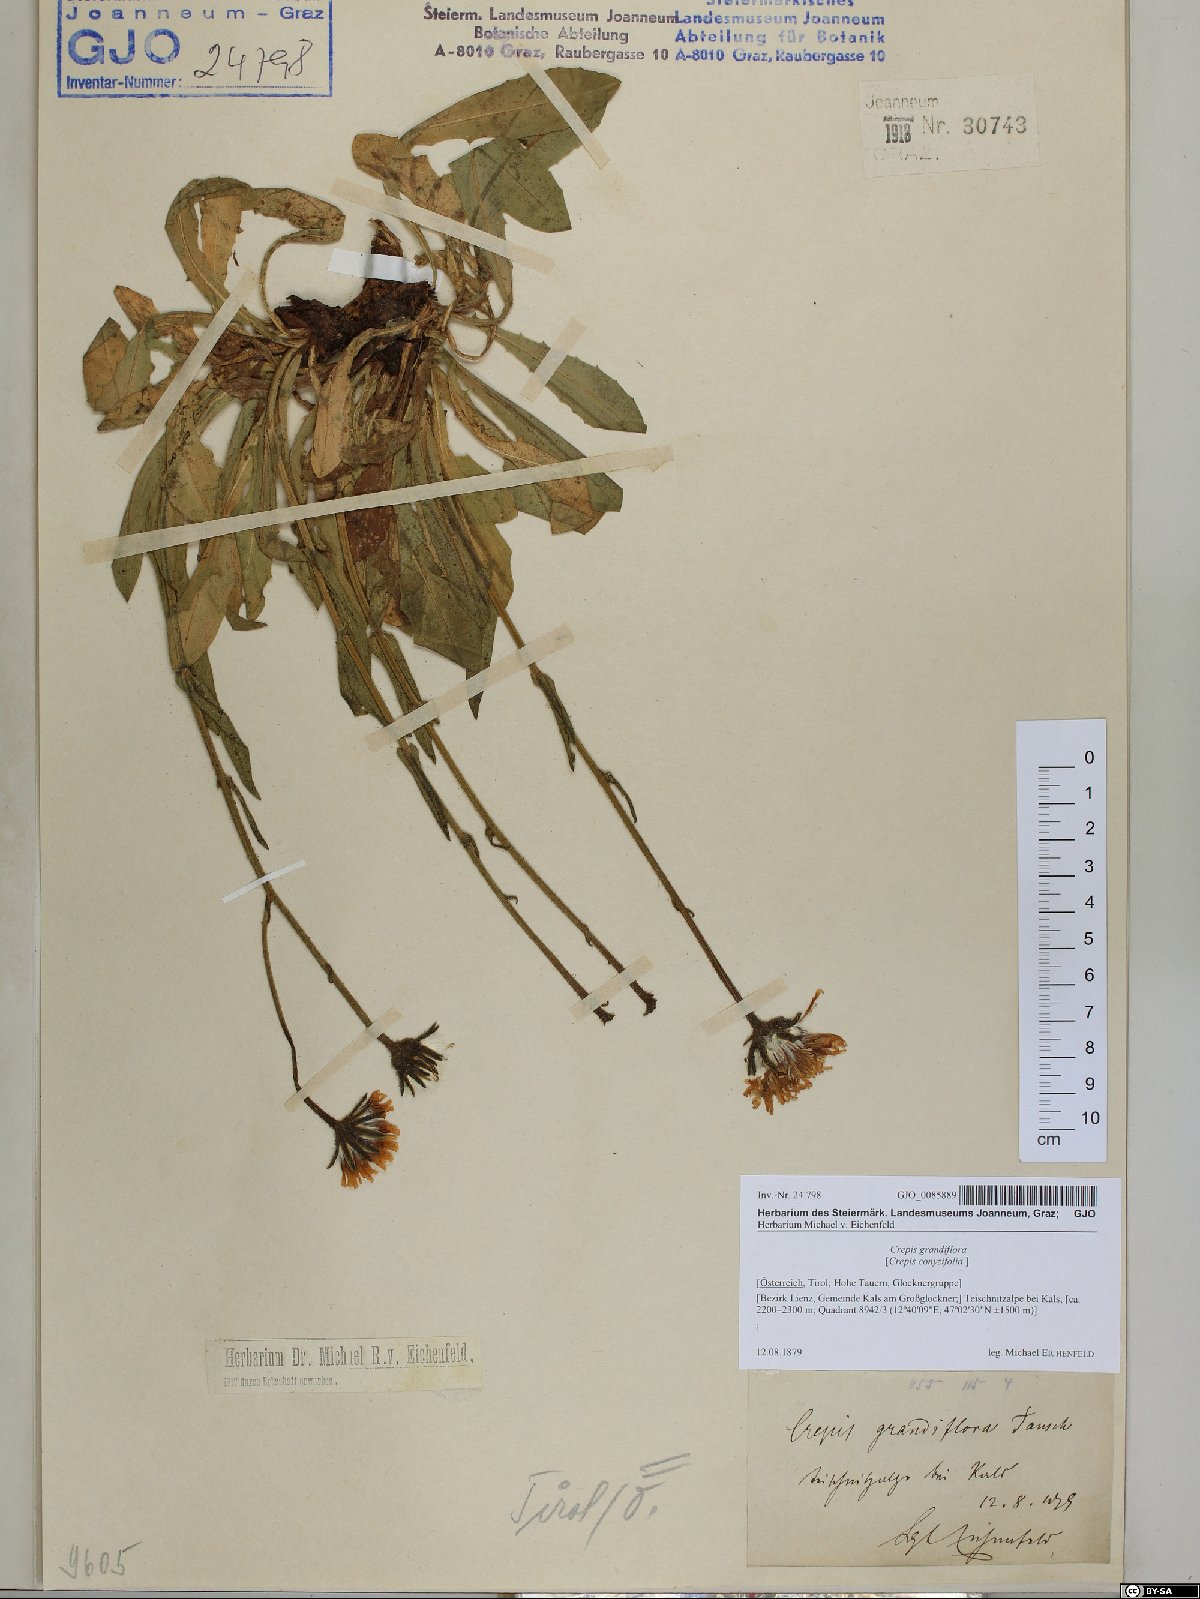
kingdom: Plantae
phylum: Tracheophyta
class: Magnoliopsida
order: Asterales
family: Asteraceae
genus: Crepis
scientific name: Crepis pyrenaica
